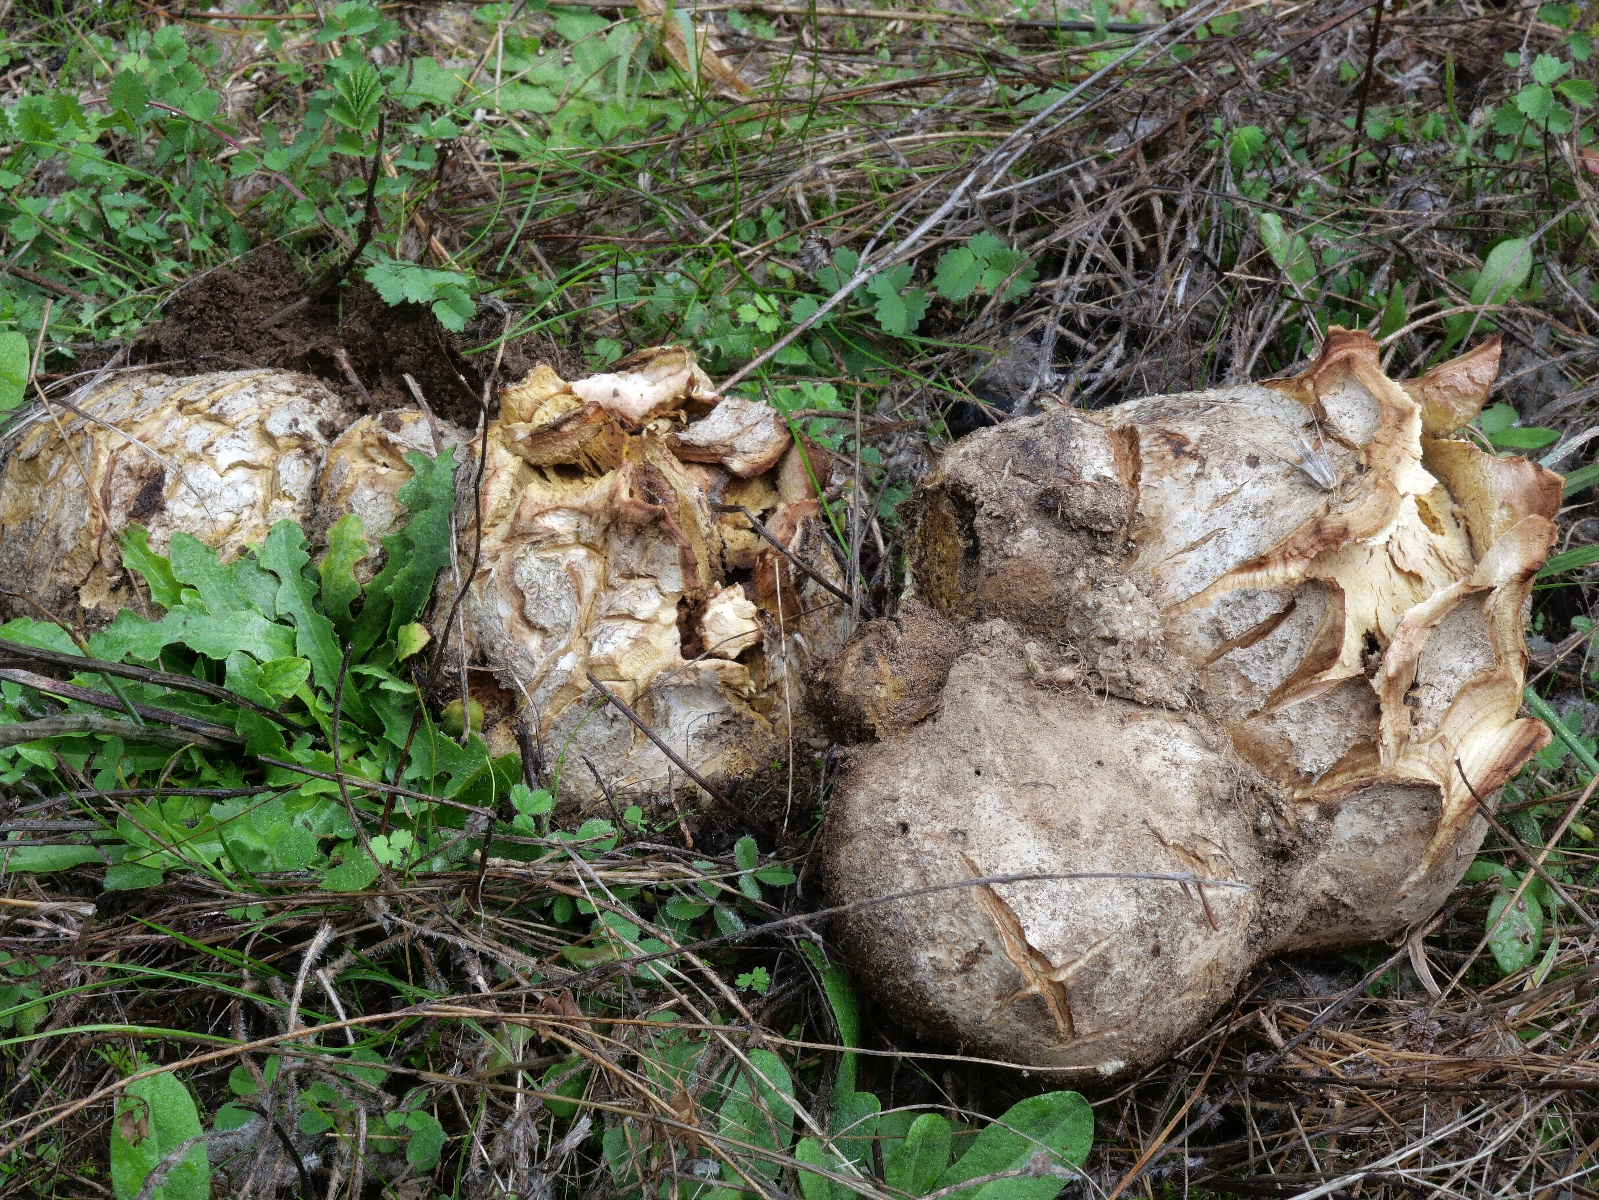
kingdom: Fungi
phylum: Basidiomycota
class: Agaricomycetes
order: Boletales
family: Sclerodermataceae
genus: Scleroderma
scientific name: Scleroderma polyrhizum
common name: Many-rooted earthball
